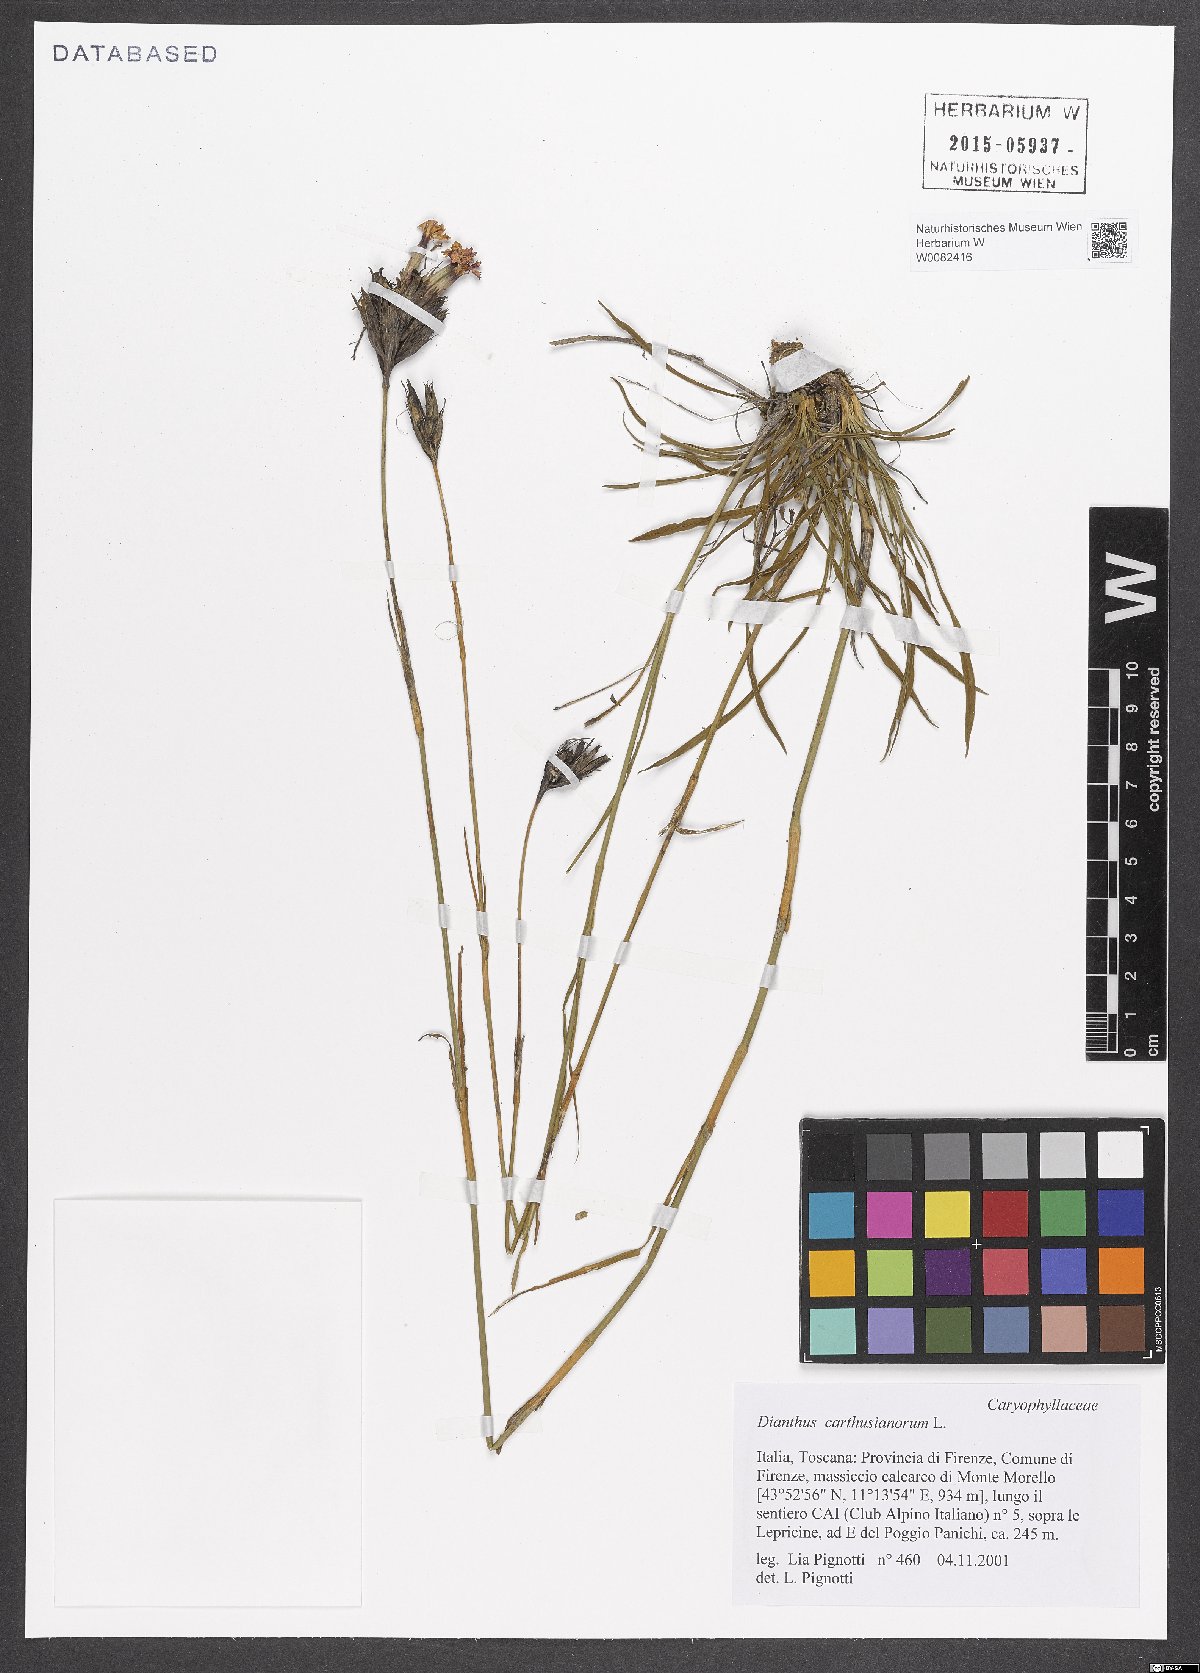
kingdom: Plantae
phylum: Tracheophyta
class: Magnoliopsida
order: Caryophyllales
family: Caryophyllaceae
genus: Dianthus
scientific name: Dianthus carthusianorum
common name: Carthusian pink
